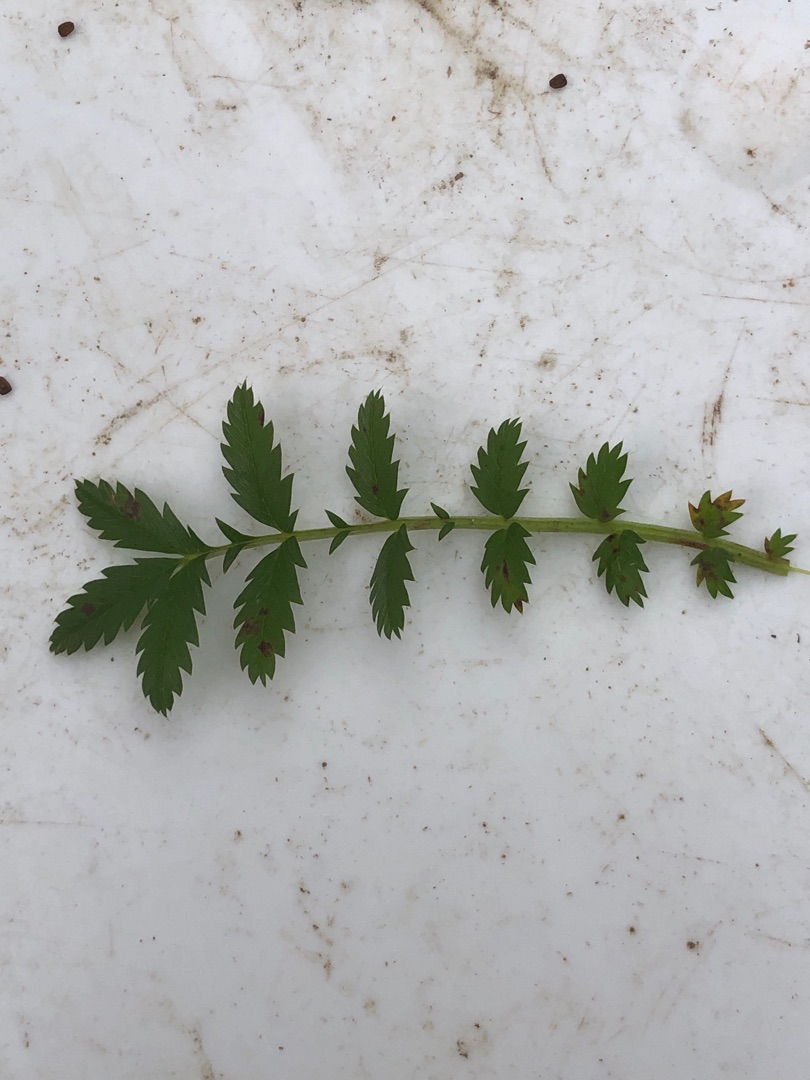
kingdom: Plantae
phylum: Tracheophyta
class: Magnoliopsida
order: Rosales
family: Rosaceae
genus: Argentina
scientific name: Argentina anserina
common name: Gåsepotentil
